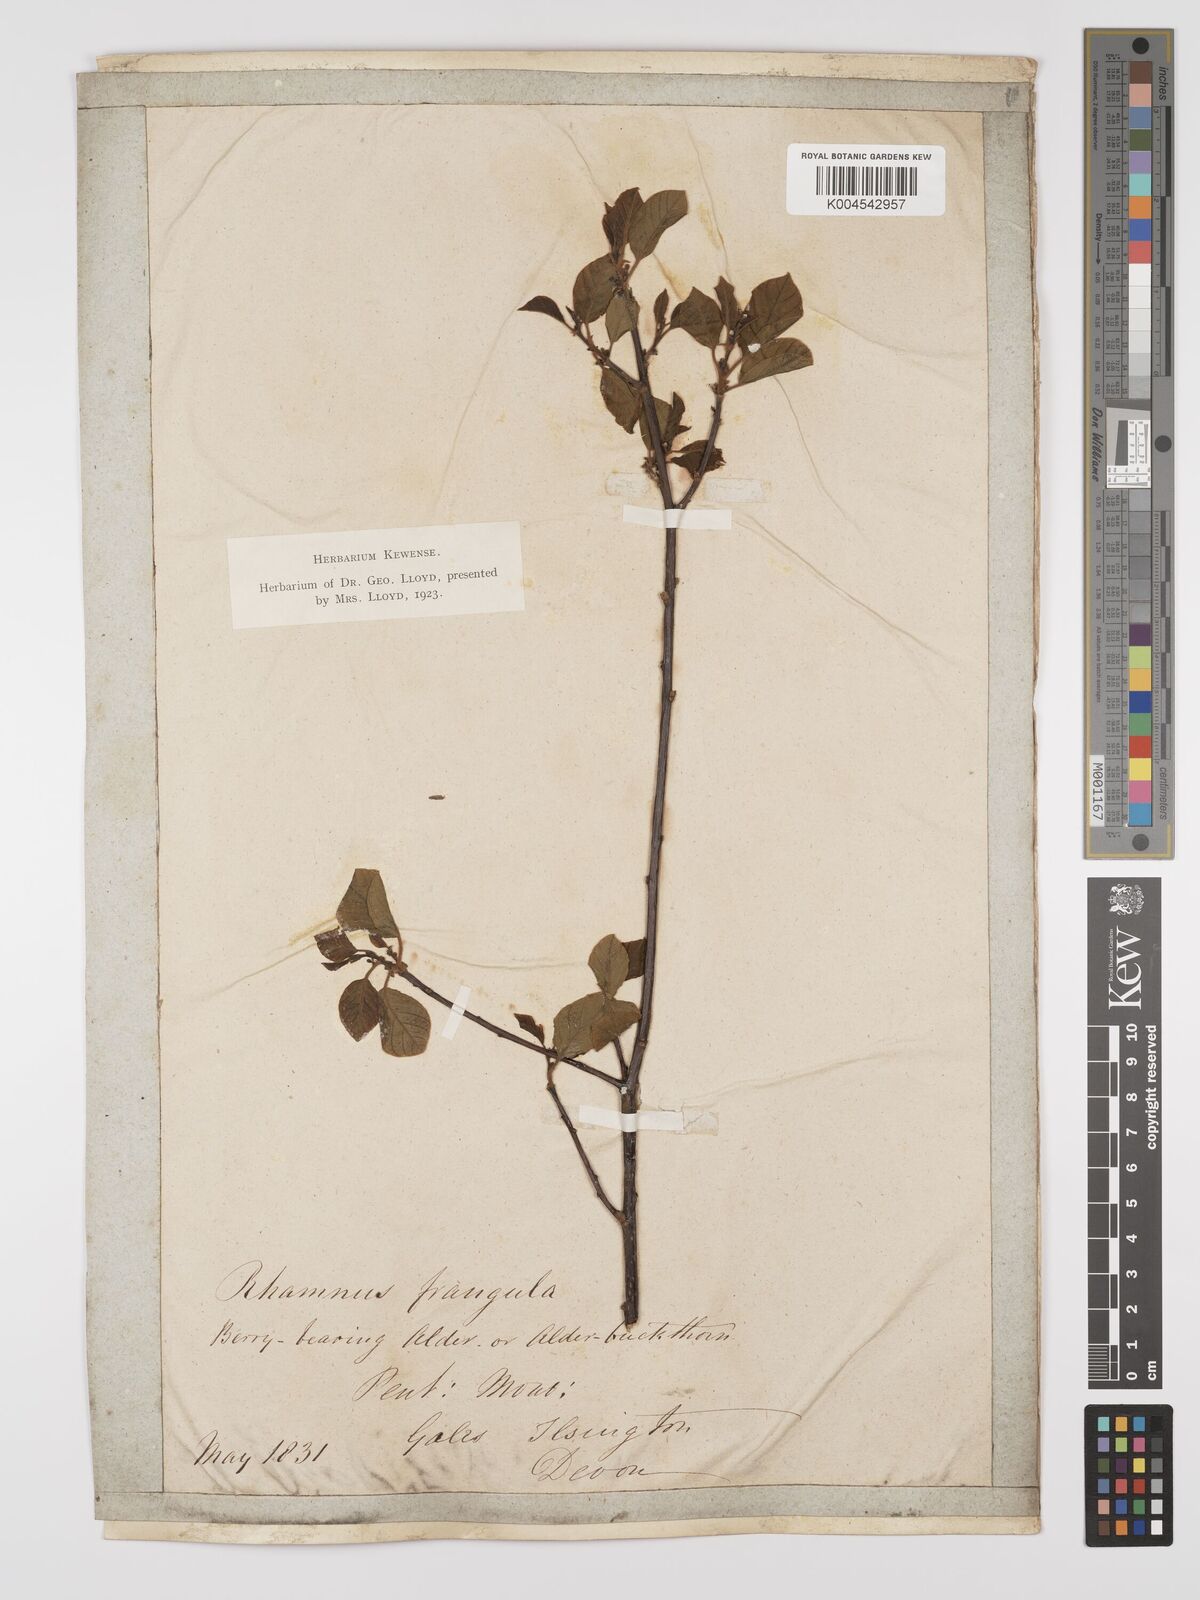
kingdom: Plantae
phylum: Tracheophyta
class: Magnoliopsida
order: Rosales
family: Rhamnaceae
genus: Frangula
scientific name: Frangula alnus
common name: Alder buckthorn
